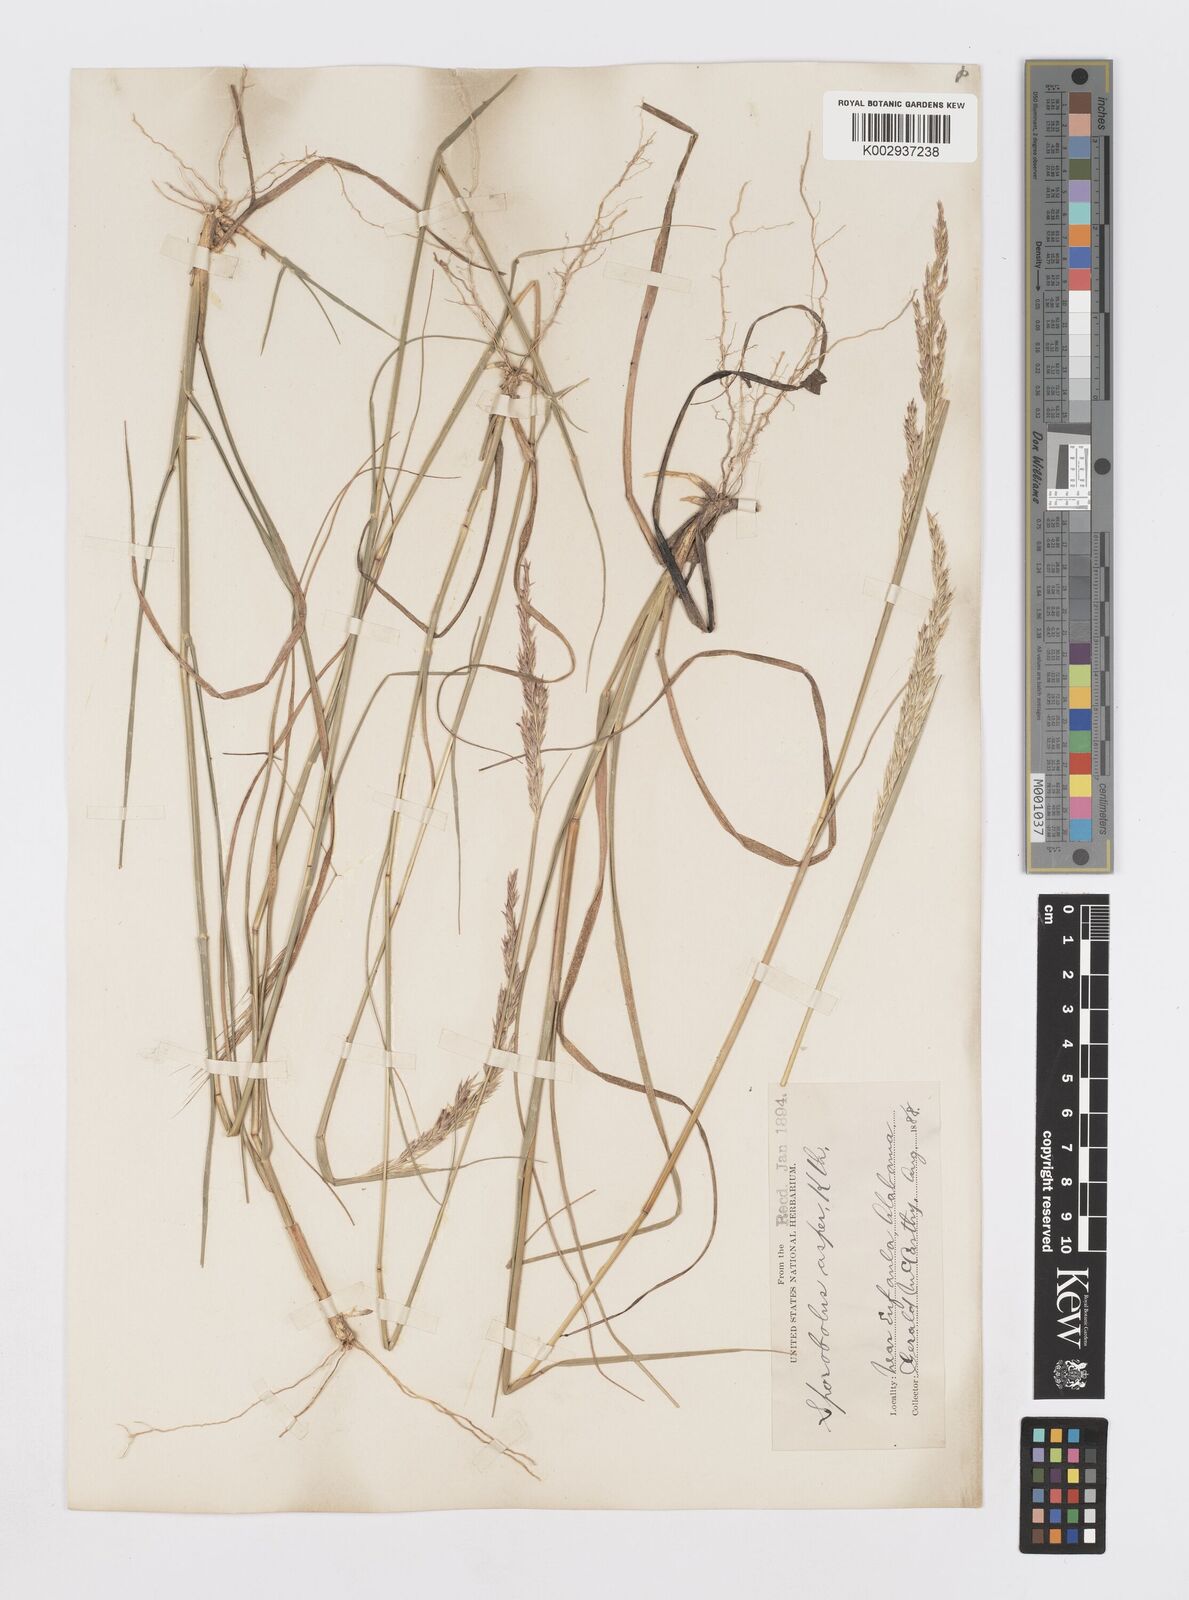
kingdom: Plantae
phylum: Tracheophyta
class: Liliopsida
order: Poales
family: Poaceae
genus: Sporobolus
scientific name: Sporobolus clandestinus
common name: Hidden dropseed
